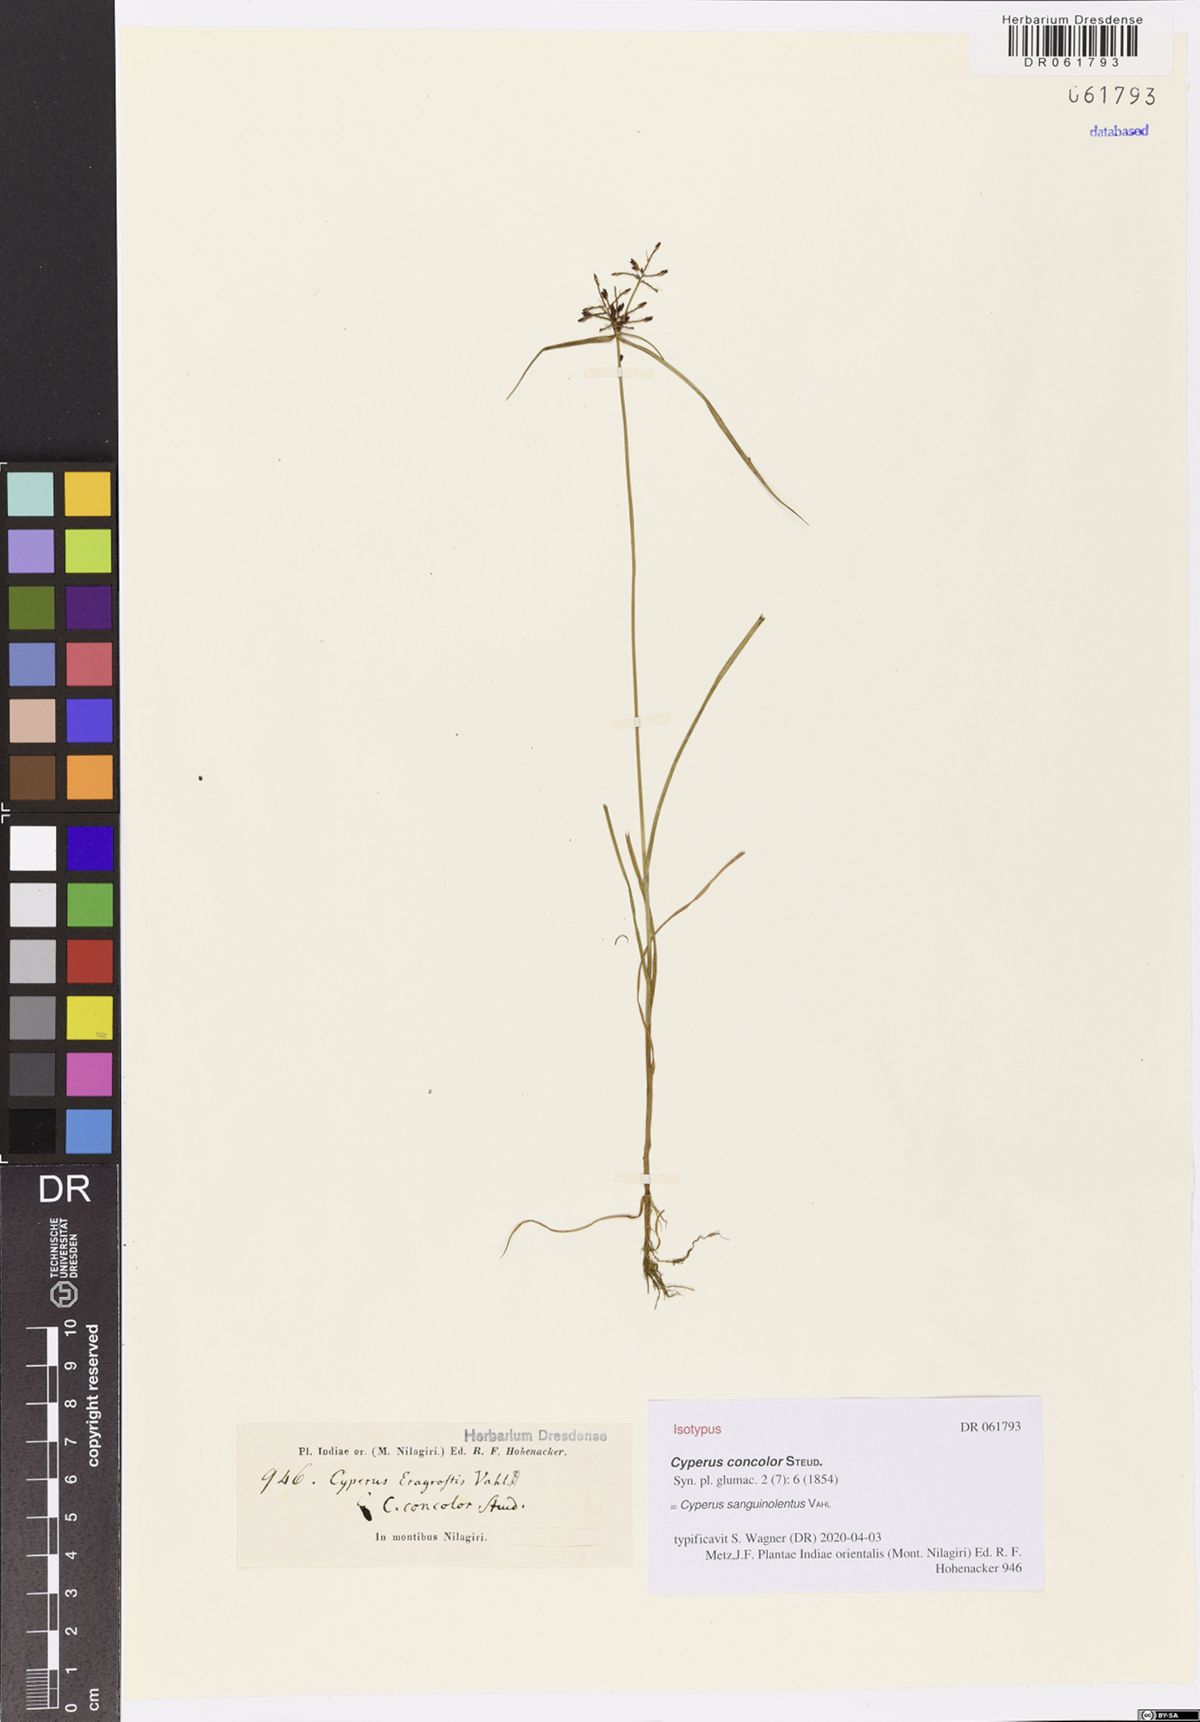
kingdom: Plantae
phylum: Tracheophyta
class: Liliopsida
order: Poales
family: Cyperaceae
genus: Cyperus
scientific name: Cyperus sanguinolentus
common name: Purpleglume flatsedge
